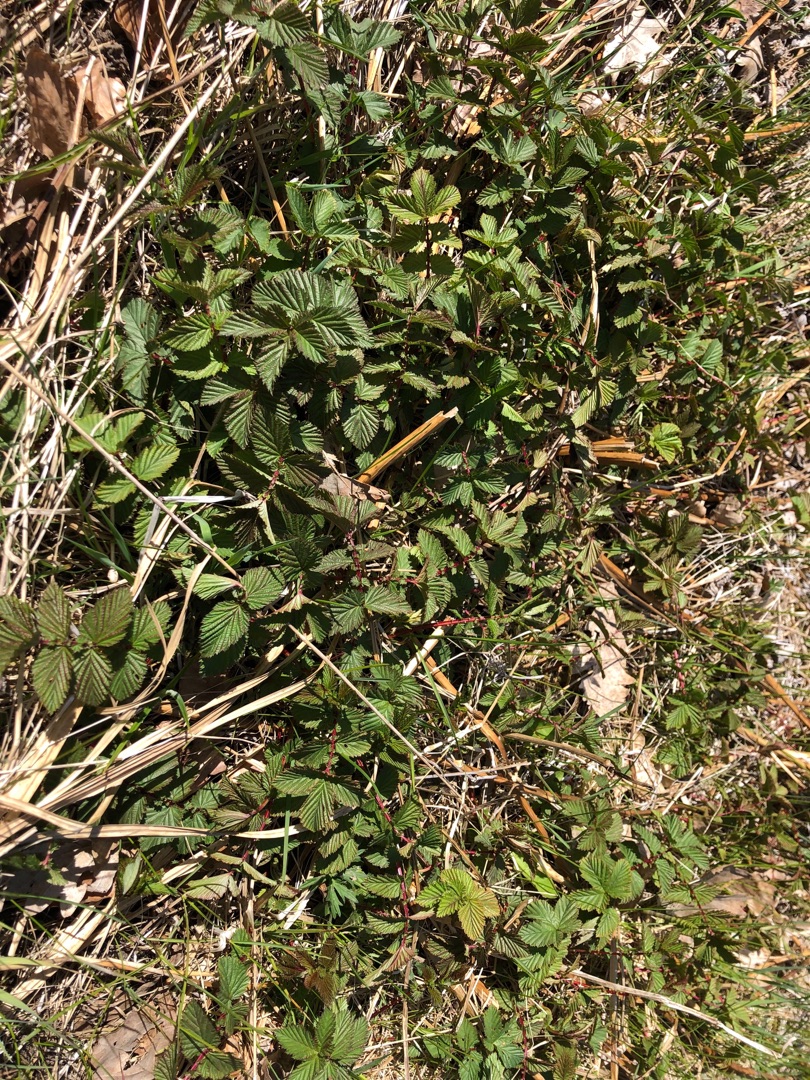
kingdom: Plantae
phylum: Tracheophyta
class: Magnoliopsida
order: Rosales
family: Rosaceae
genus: Filipendula
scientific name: Filipendula ulmaria
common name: Almindelig mjødurt
